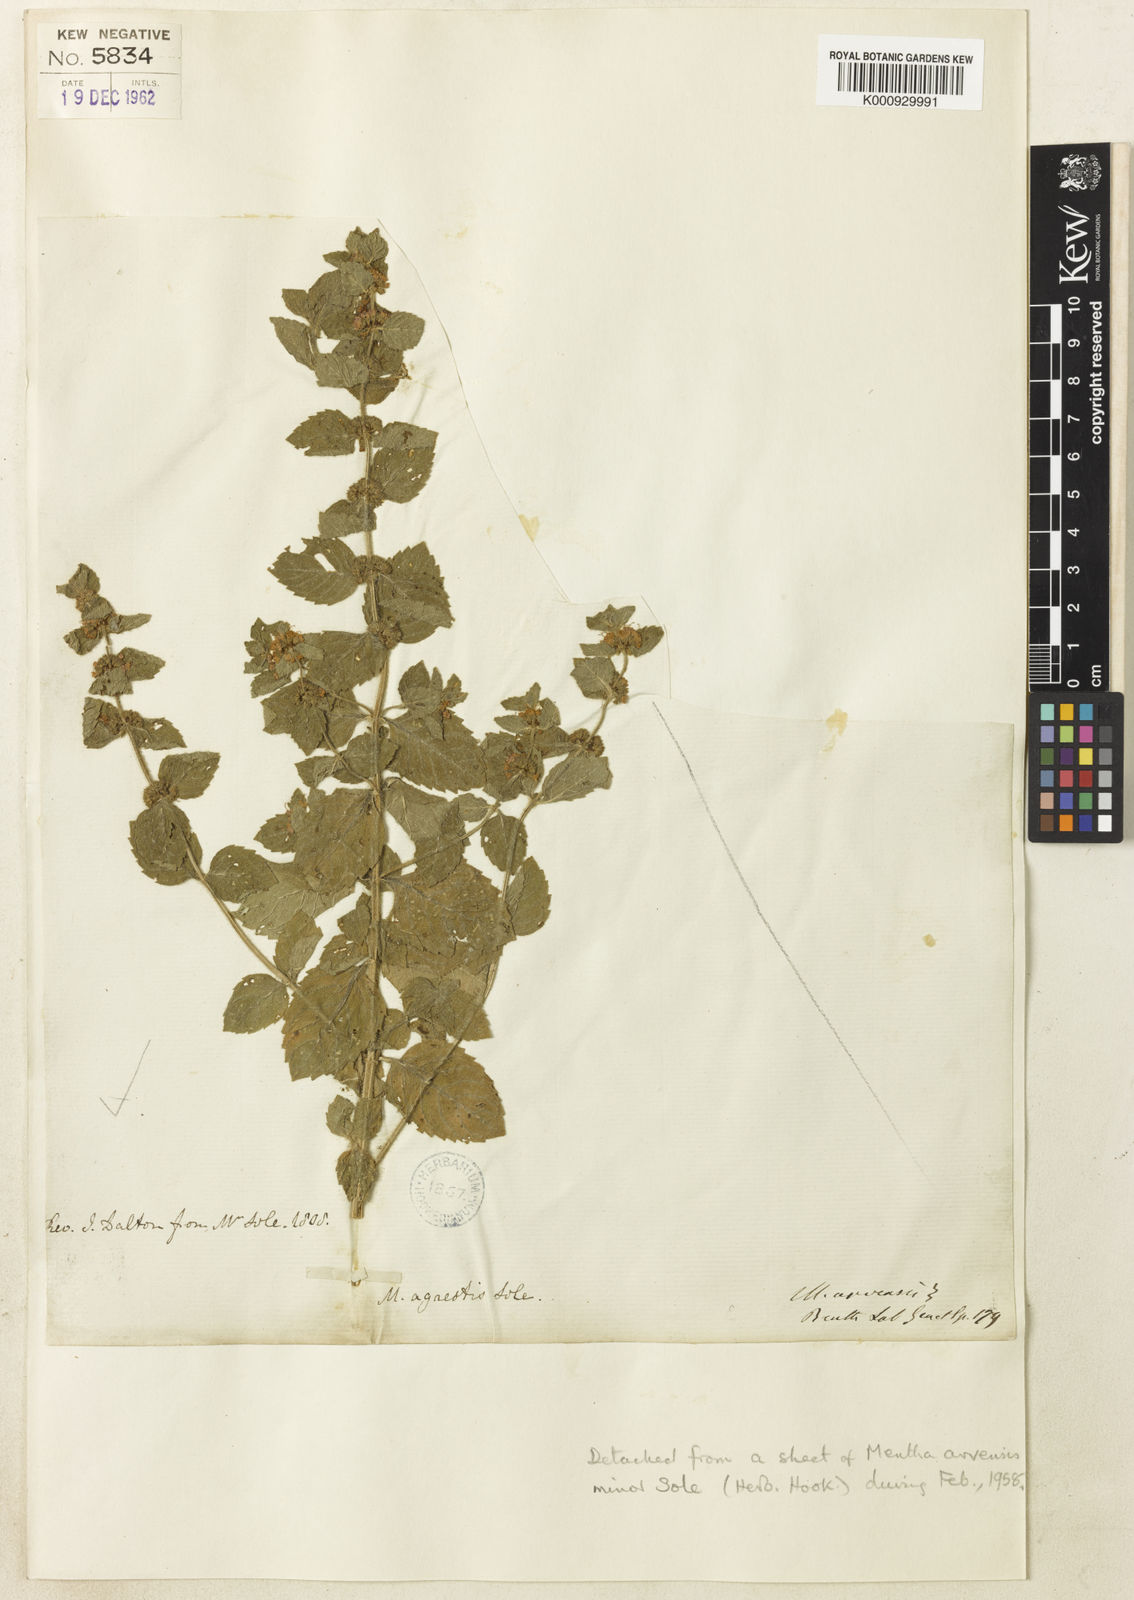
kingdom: Plantae
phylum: Tracheophyta
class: Magnoliopsida
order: Lamiales
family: Lamiaceae
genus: Mentha
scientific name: Mentha
